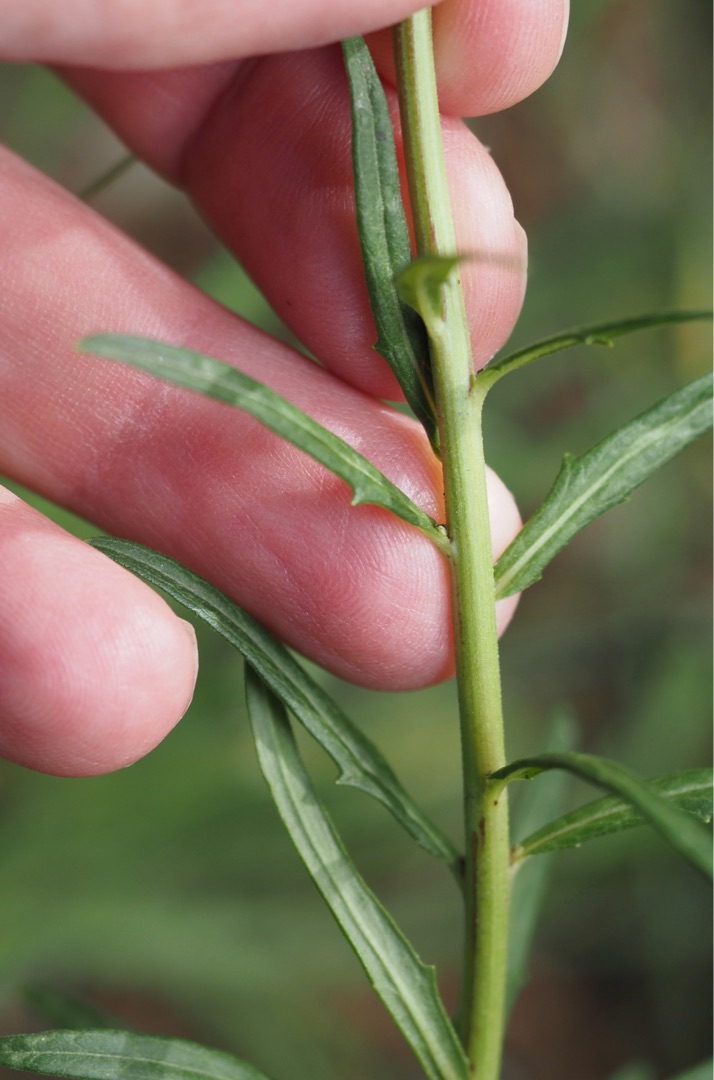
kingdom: Plantae
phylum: Tracheophyta
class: Magnoliopsida
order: Asterales
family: Asteraceae
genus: Hieracium
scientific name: Hieracium umbellatum
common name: Smalbladet høgeurt
